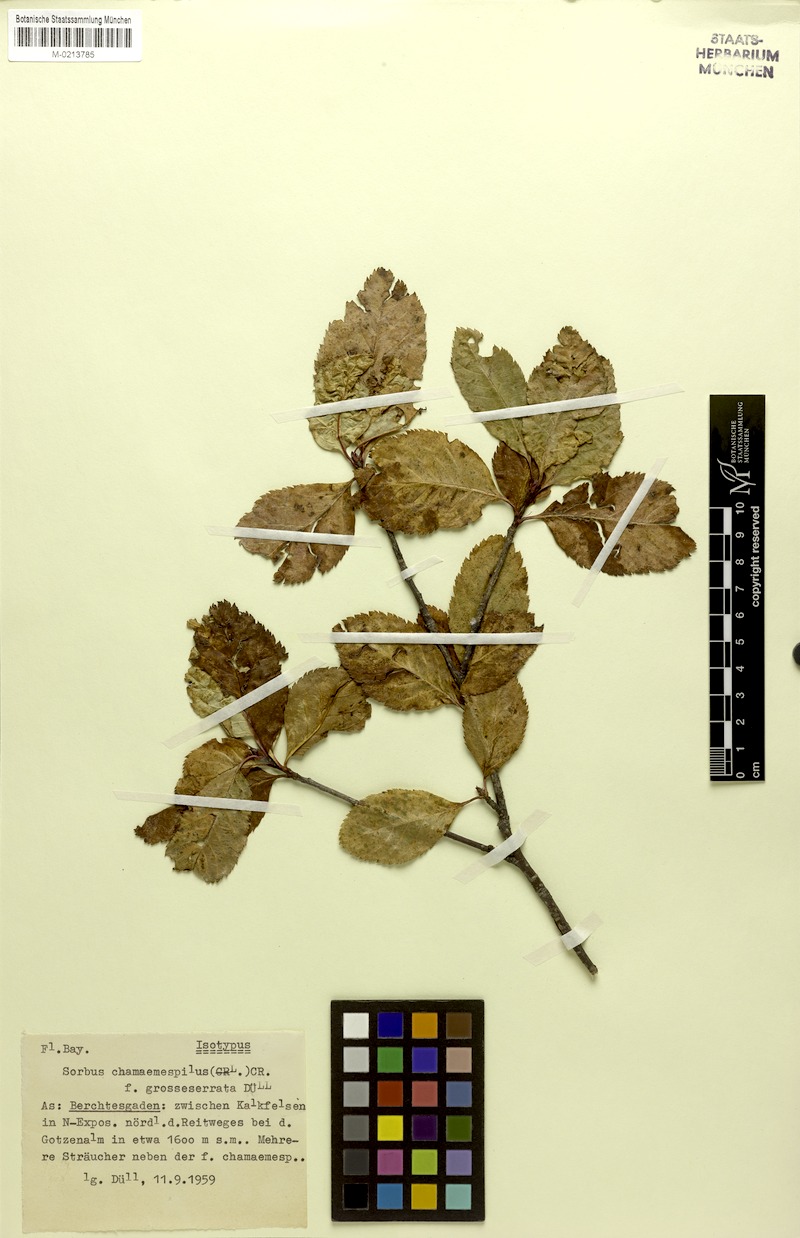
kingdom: Plantae
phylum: Tracheophyta
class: Magnoliopsida
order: Rosales
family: Rosaceae
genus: Chamaemespilus
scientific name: Chamaemespilus alpina
